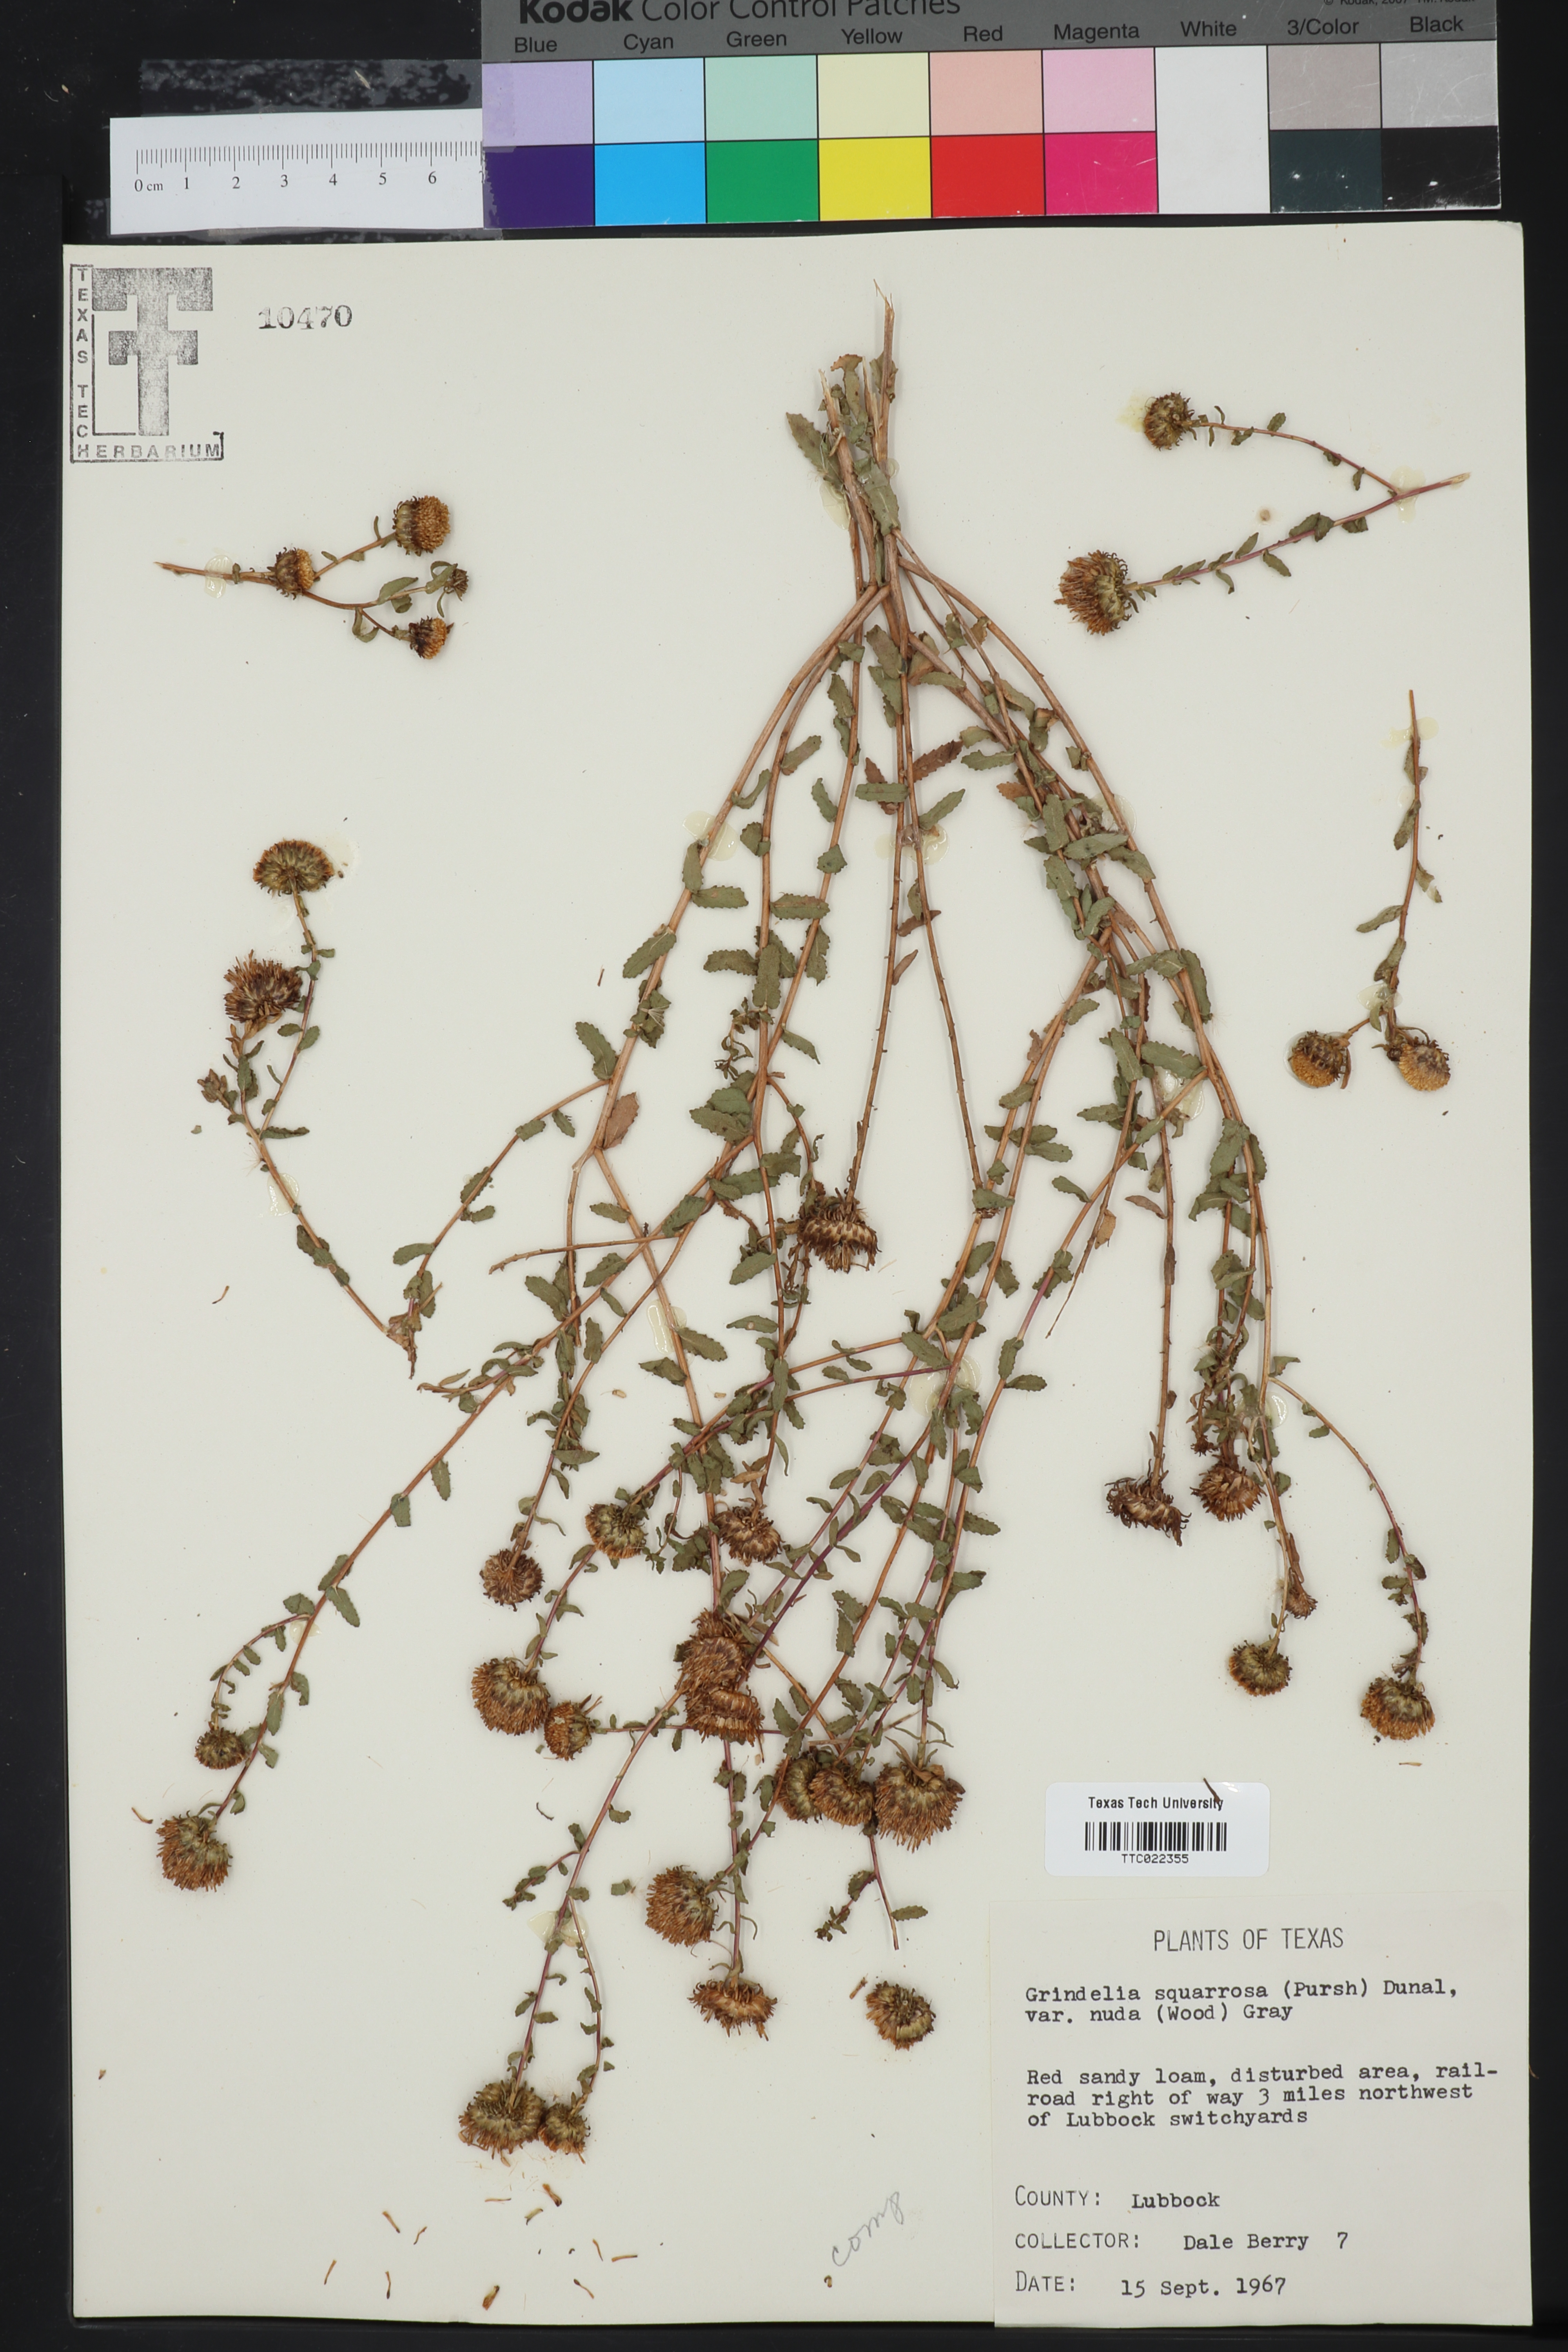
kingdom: Plantae
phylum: Tracheophyta
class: Magnoliopsida
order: Asterales
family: Asteraceae
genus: Grindelia
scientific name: Grindelia nuda
